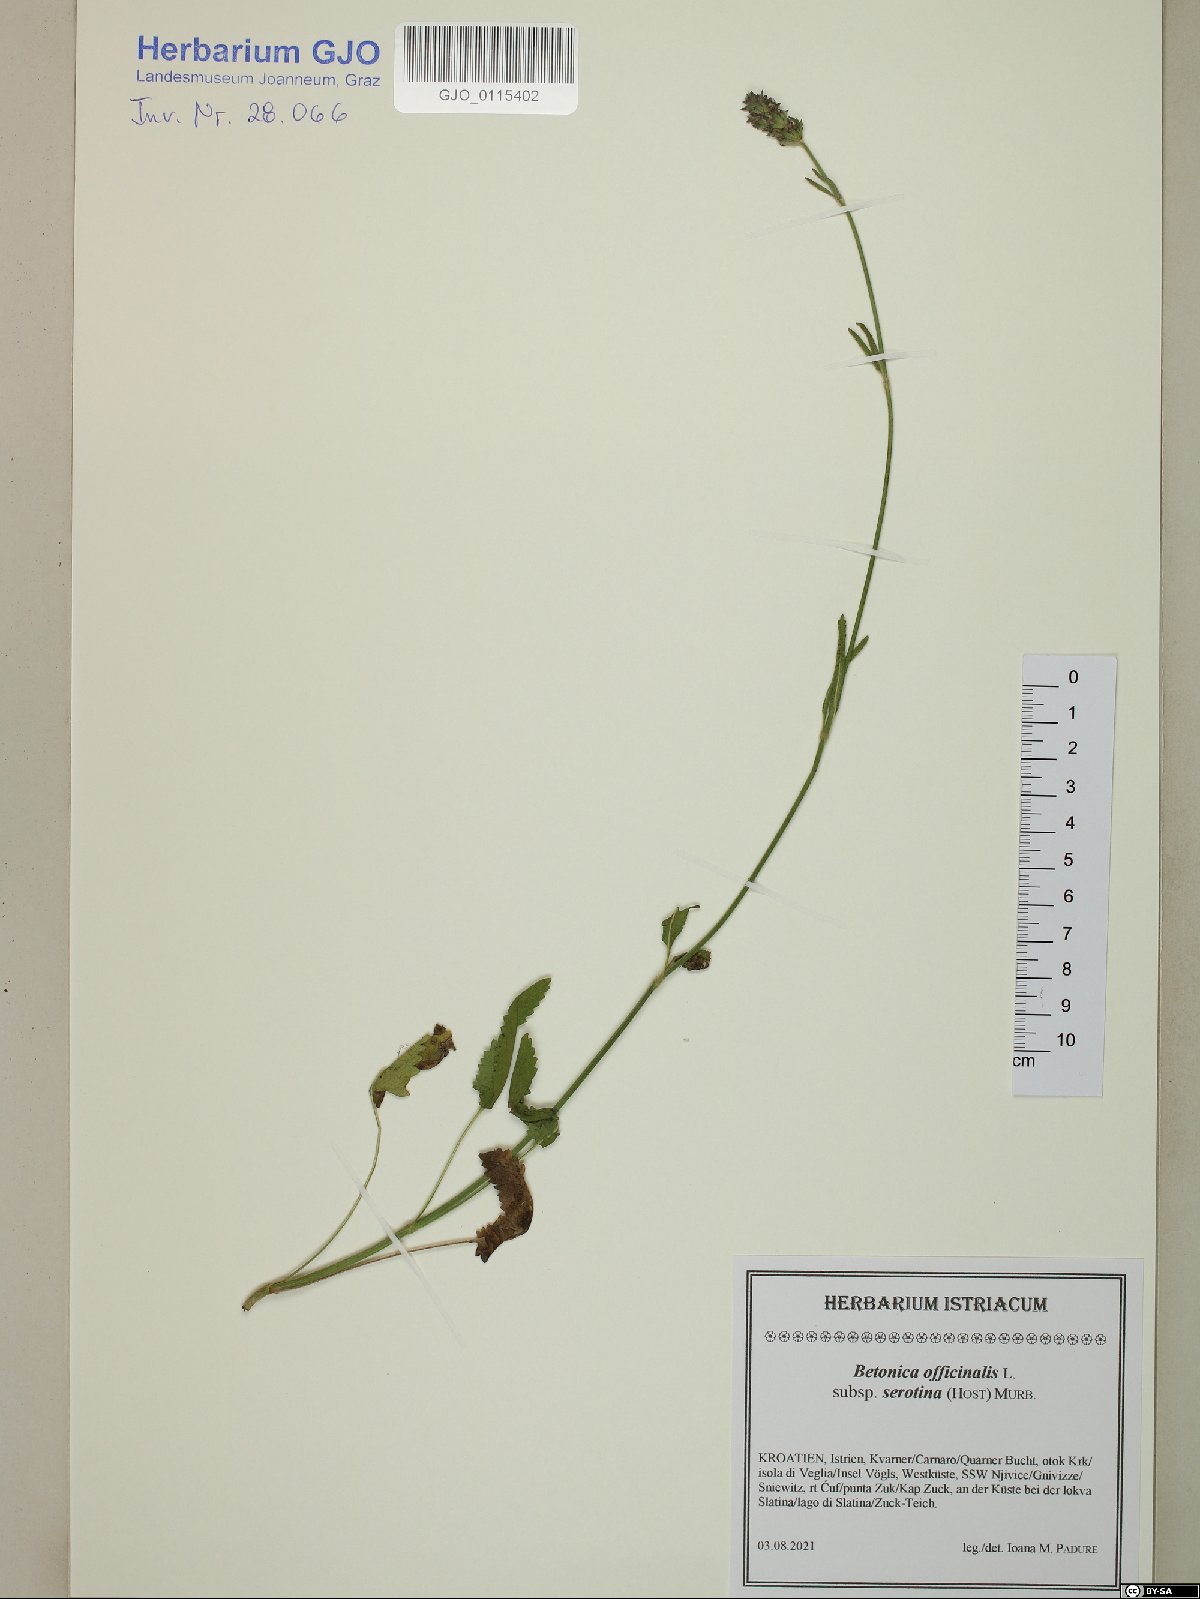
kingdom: Plantae
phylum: Tracheophyta
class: Magnoliopsida
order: Lamiales
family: Lamiaceae
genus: Betonica
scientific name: Betonica officinalis
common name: Bishop's-wort
